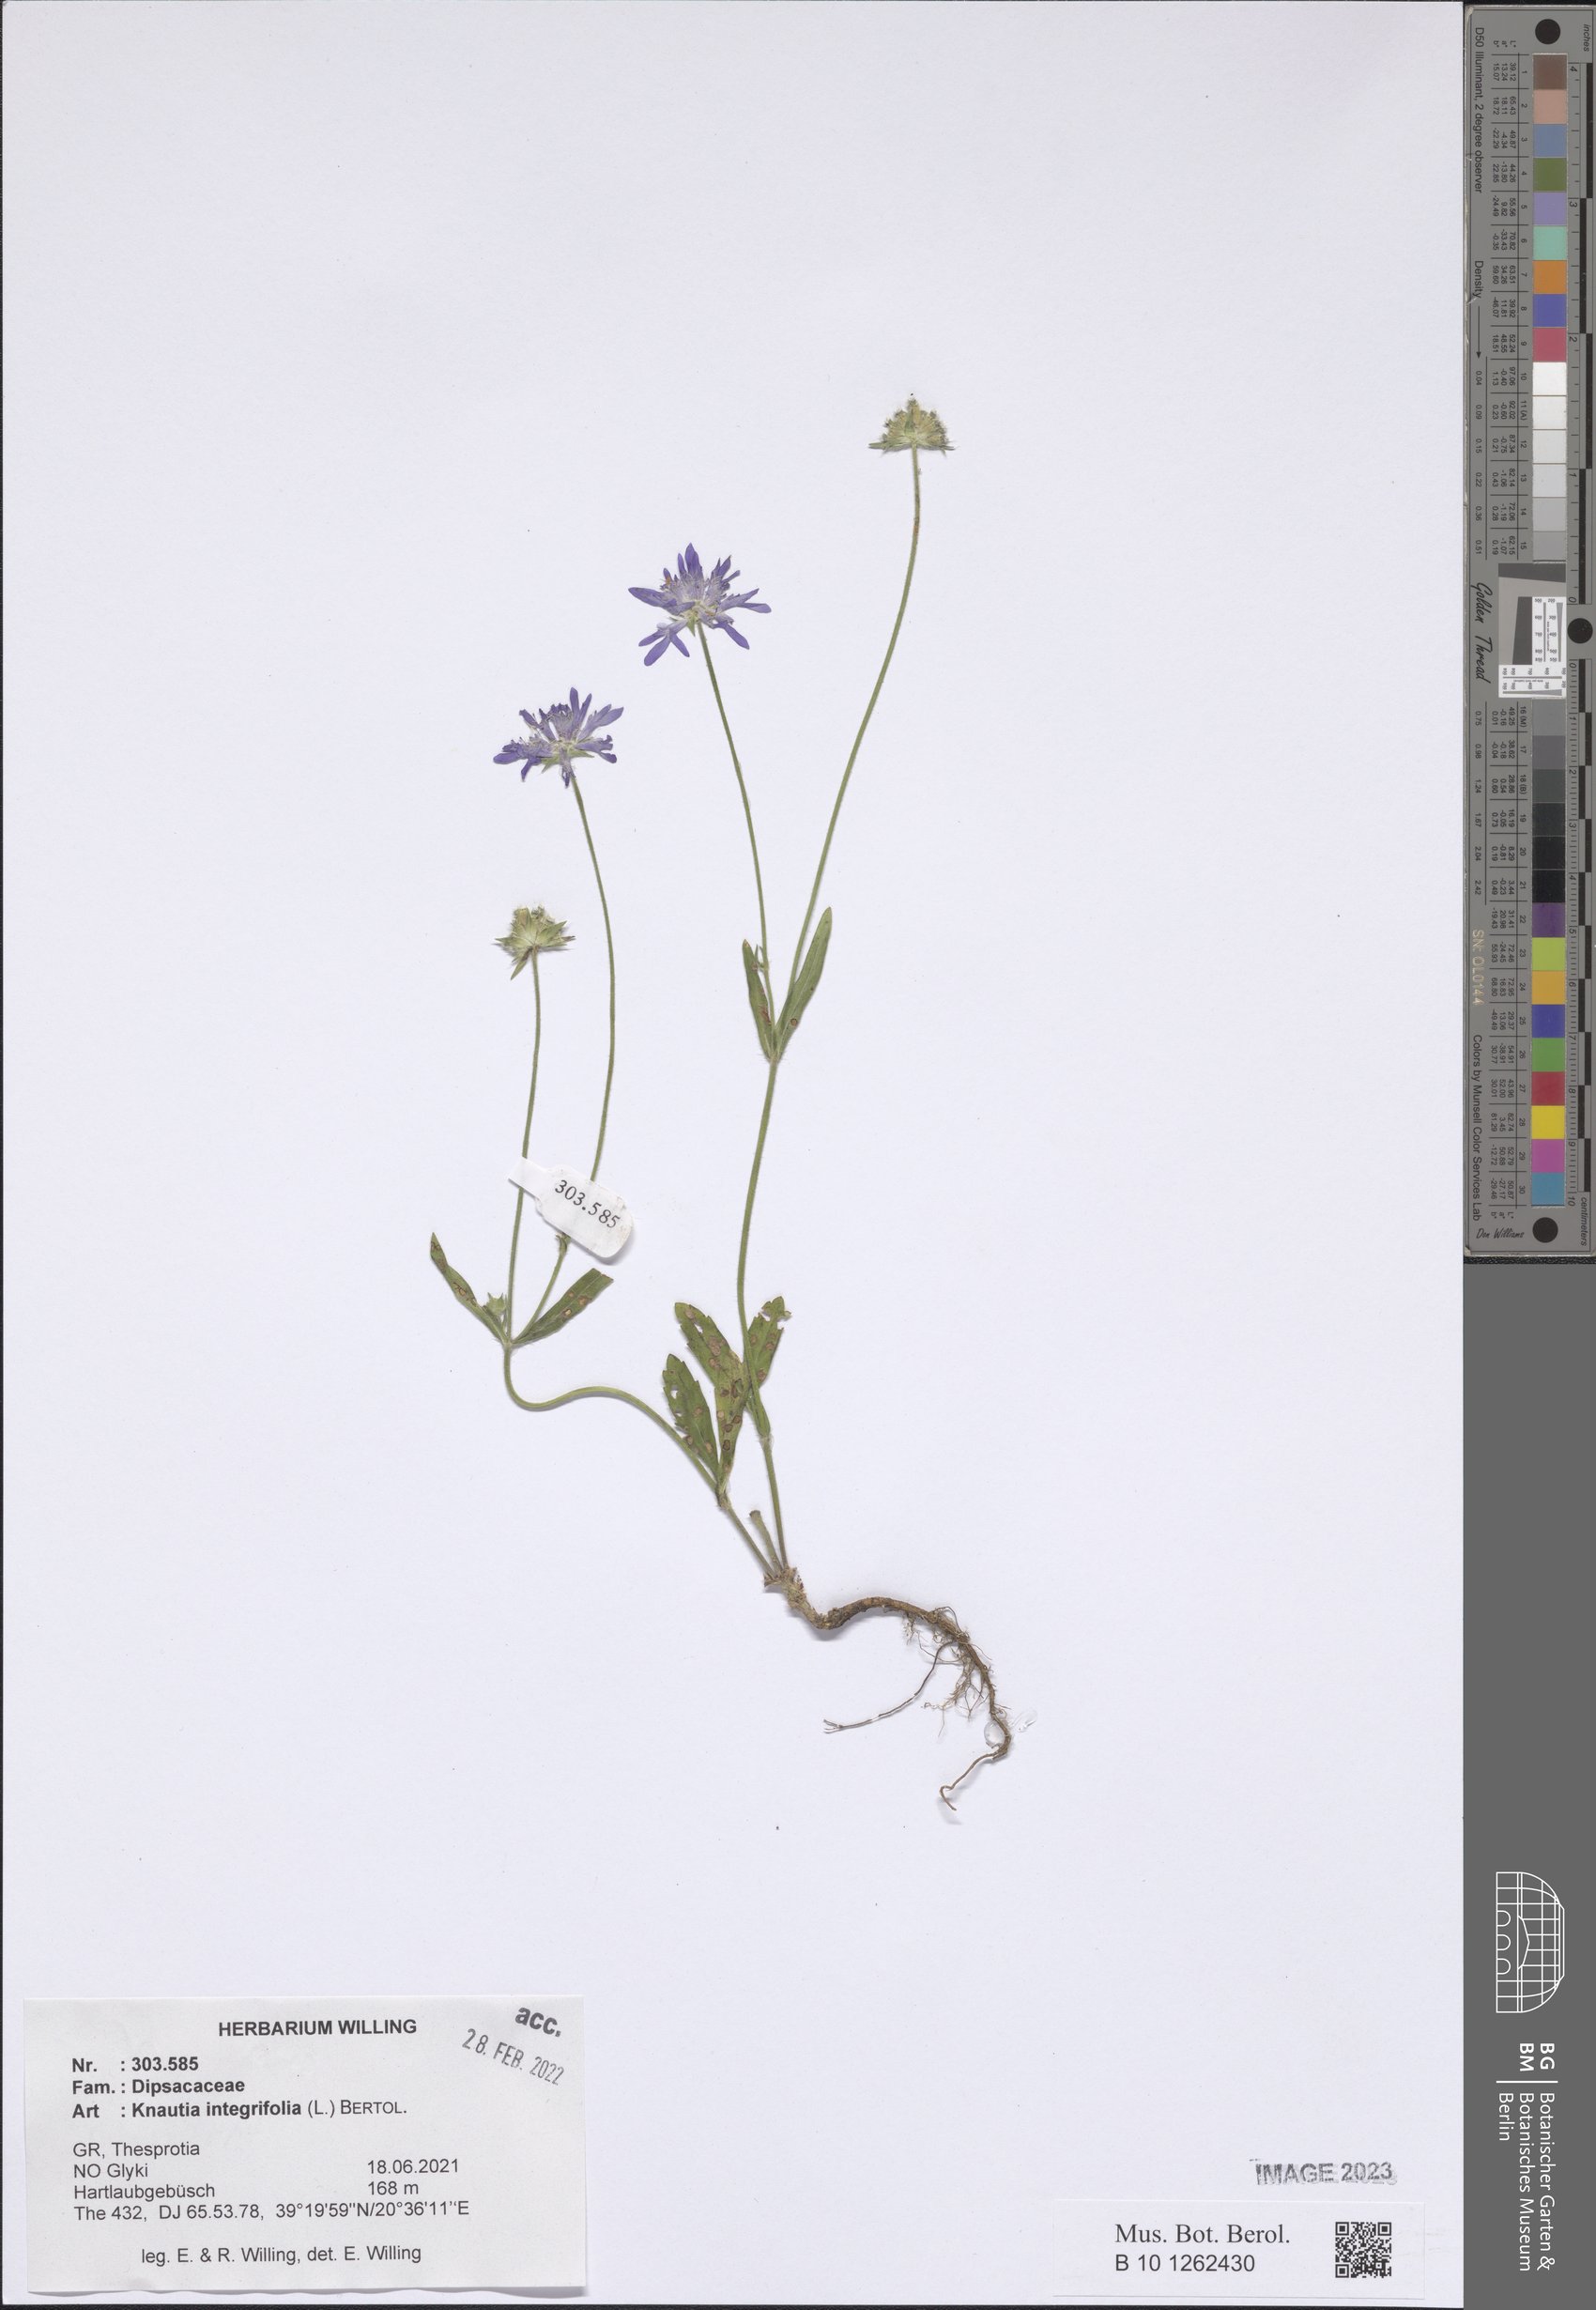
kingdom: Plantae
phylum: Tracheophyta
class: Magnoliopsida
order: Dipsacales
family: Caprifoliaceae
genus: Knautia
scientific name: Knautia integrifolia
